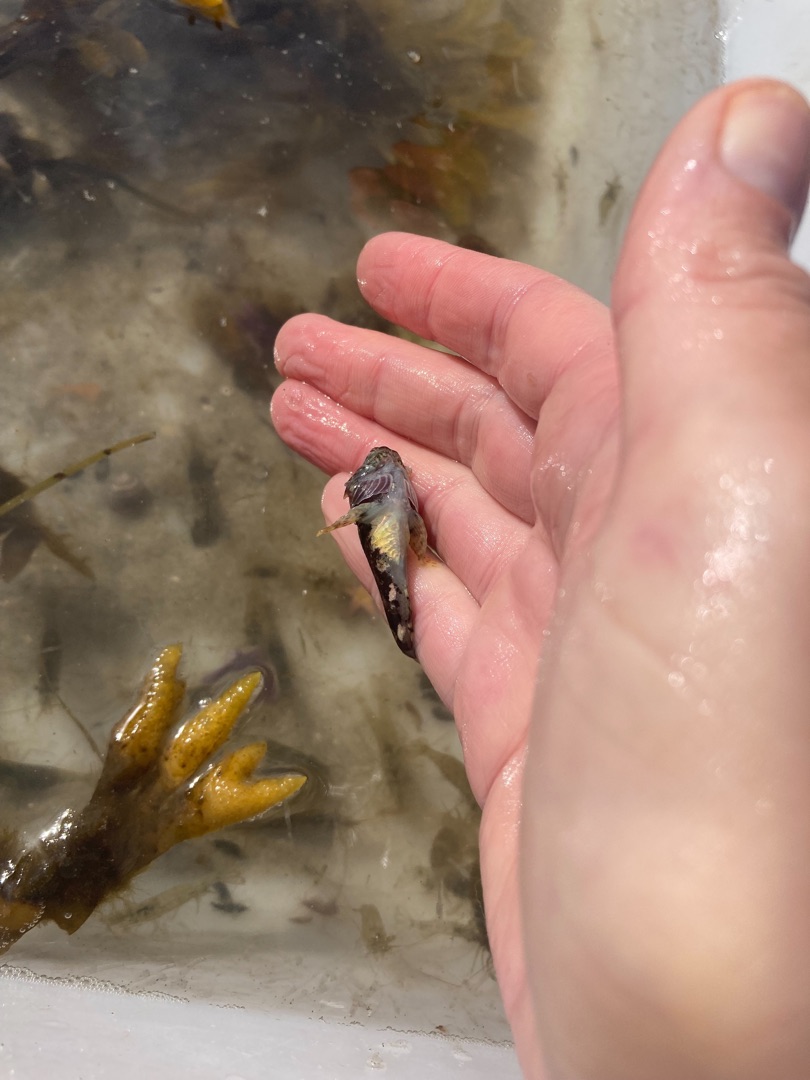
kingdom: Animalia
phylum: Chordata
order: Scorpaeniformes
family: Cottidae
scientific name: Cottidae
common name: Ulkefamilien
